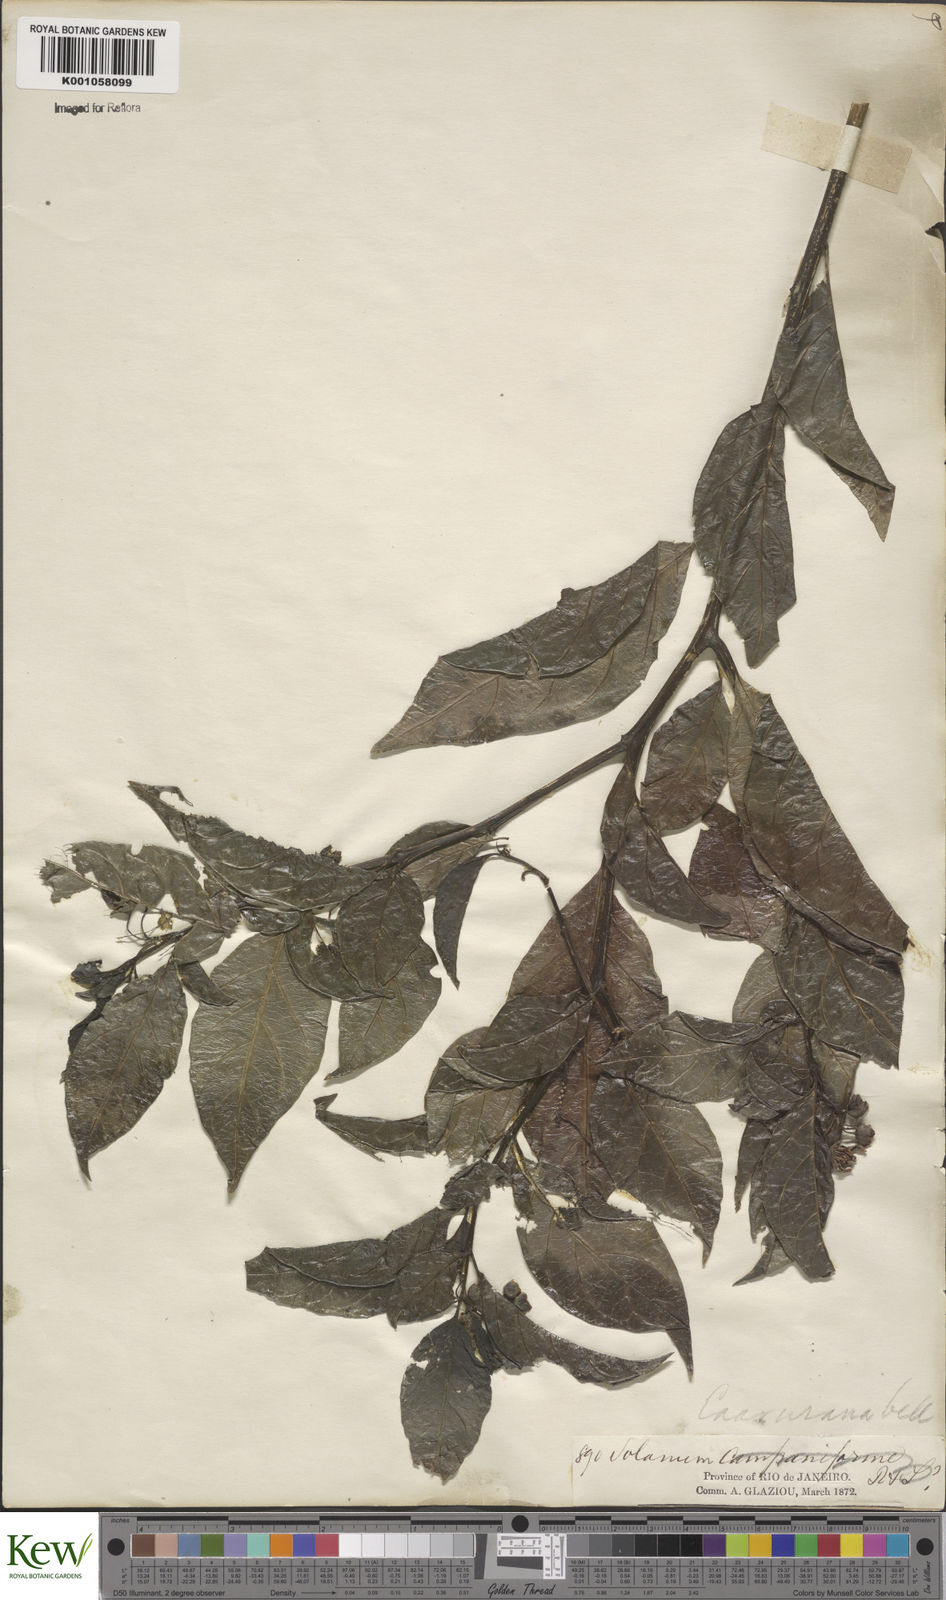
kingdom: Plantae
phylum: Tracheophyta
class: Magnoliopsida
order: Solanales
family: Solanaceae
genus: Solanum
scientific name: Solanum caavurana
